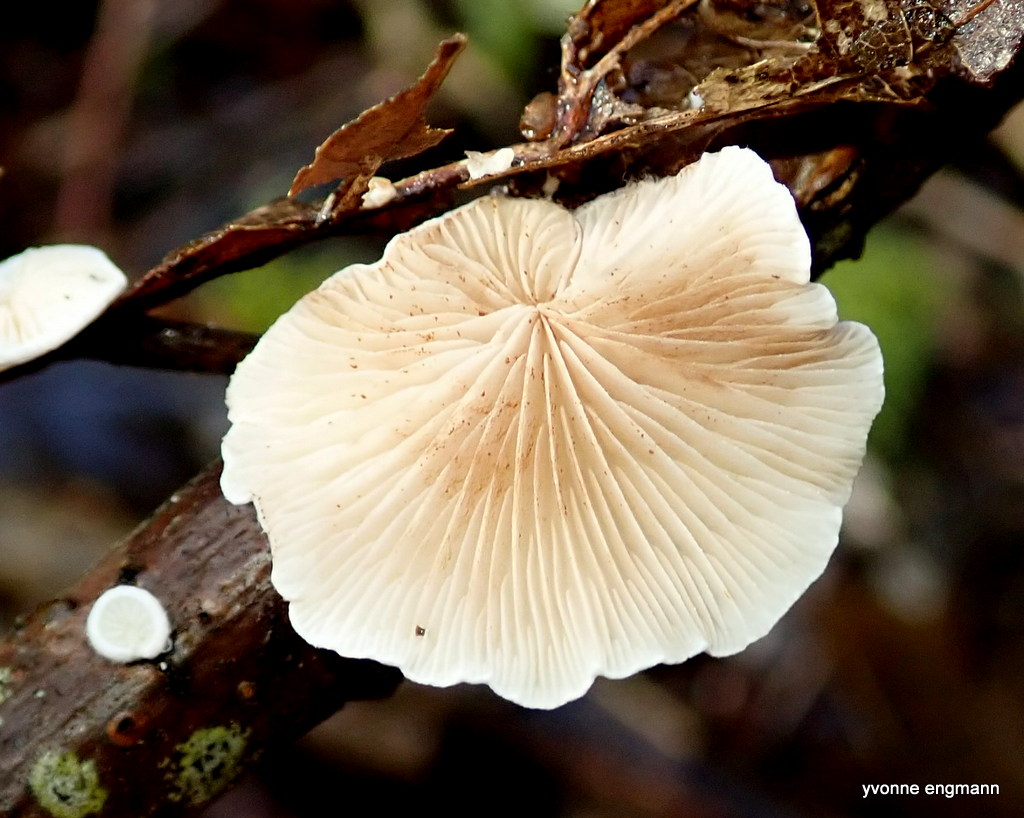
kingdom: Fungi
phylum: Basidiomycota
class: Agaricomycetes
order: Agaricales
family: Crepidotaceae
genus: Crepidotus
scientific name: Crepidotus
